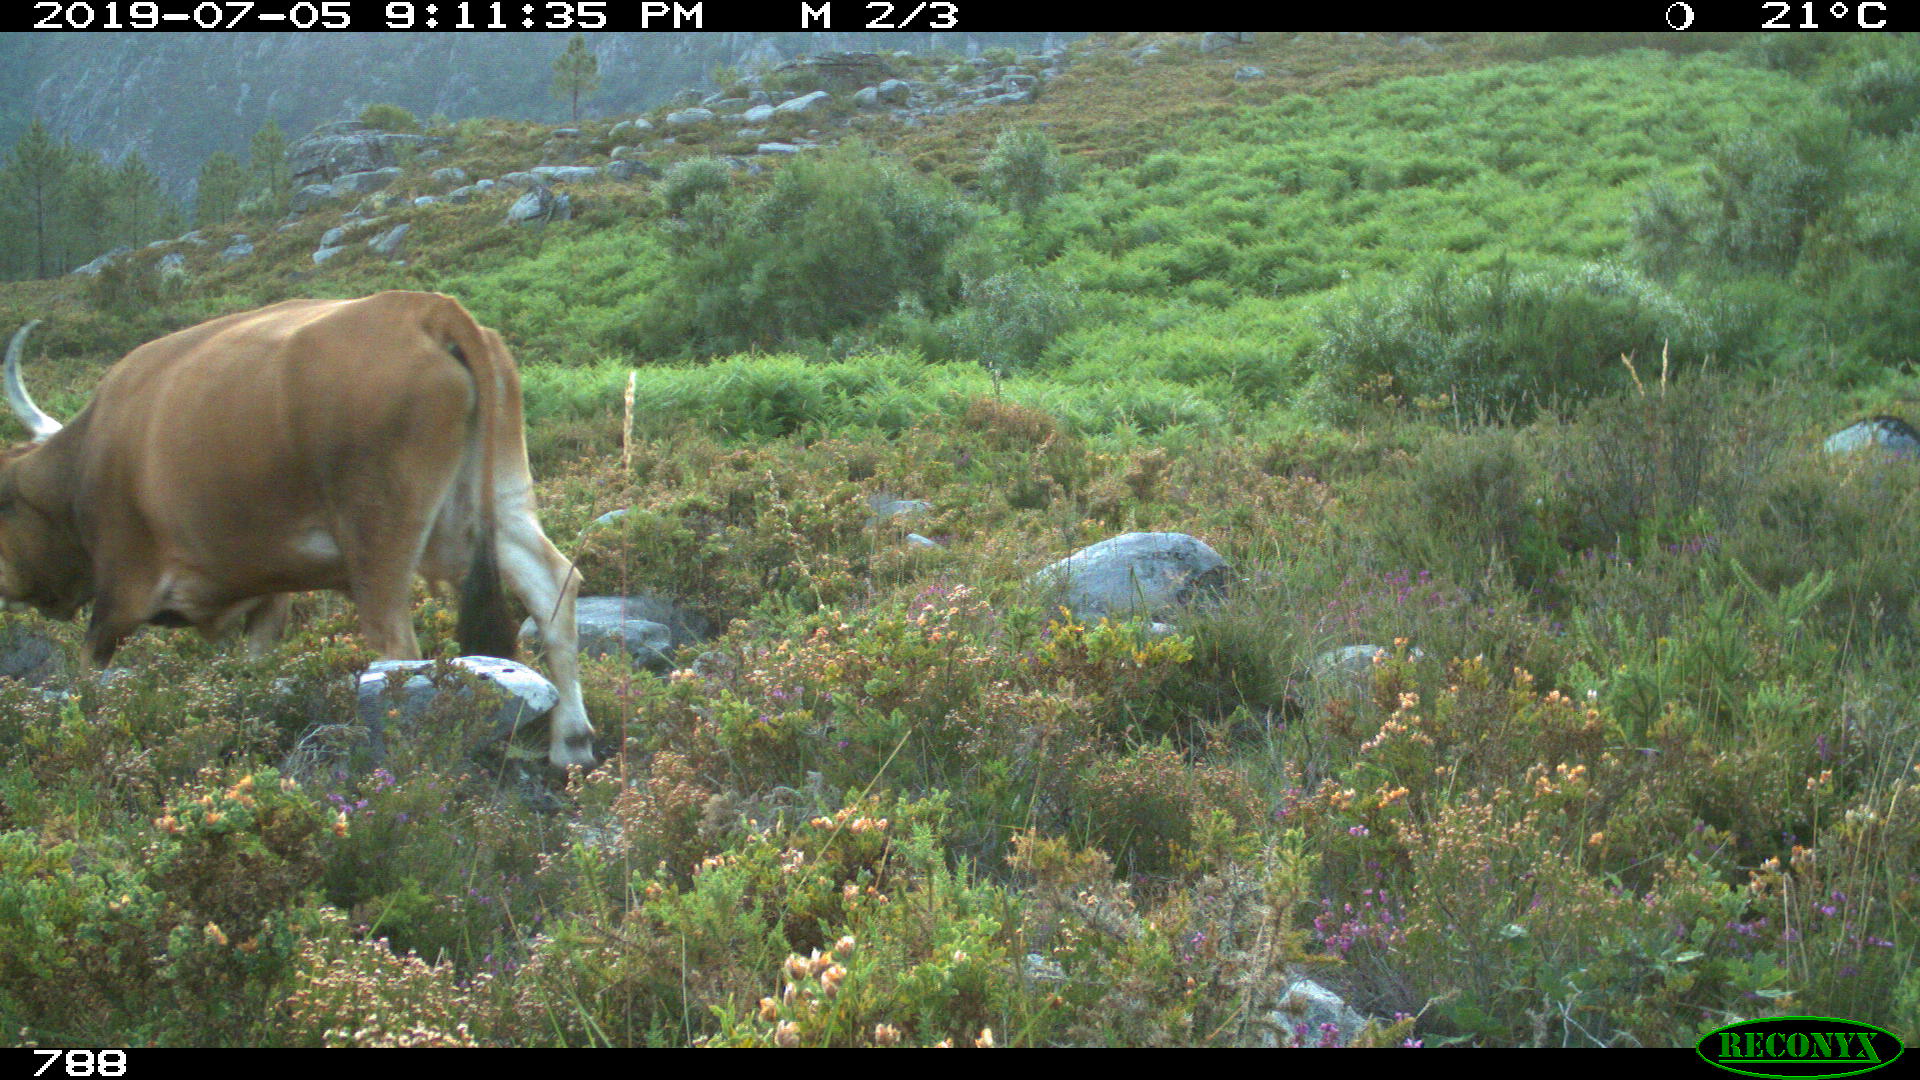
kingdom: Animalia
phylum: Chordata
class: Mammalia
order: Artiodactyla
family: Bovidae
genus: Bos
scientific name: Bos taurus
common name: Domesticated cattle
